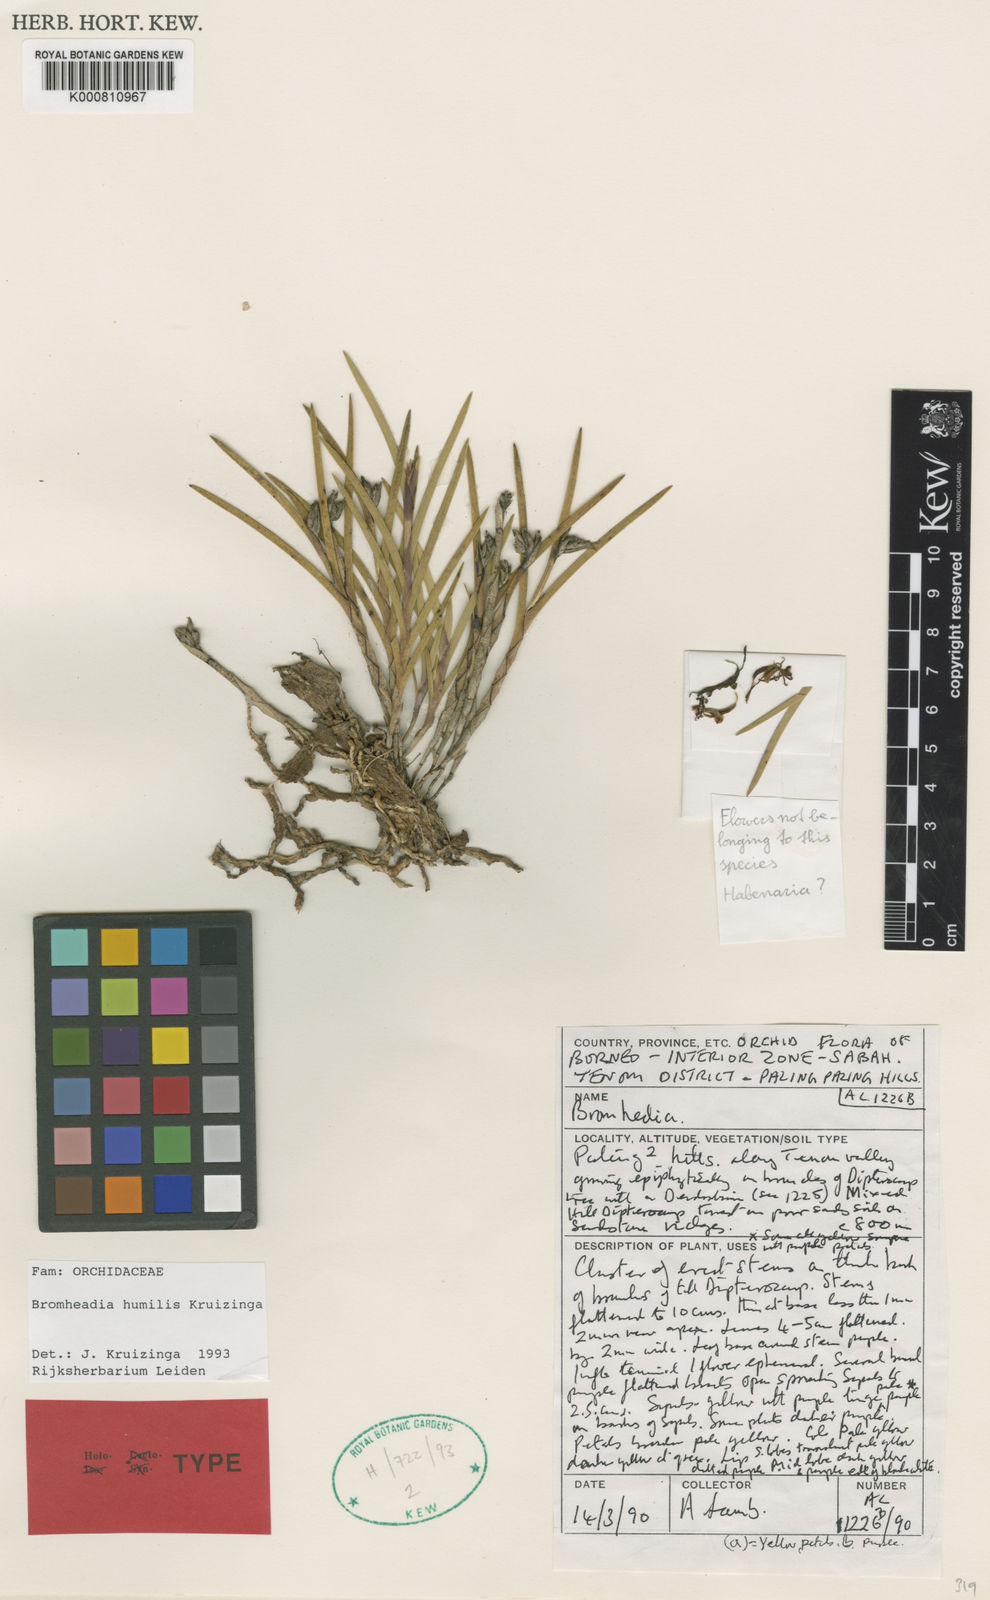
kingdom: Plantae
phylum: Tracheophyta
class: Liliopsida
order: Asparagales
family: Orchidaceae
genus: Bromheadia
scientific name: Bromheadia humilis
